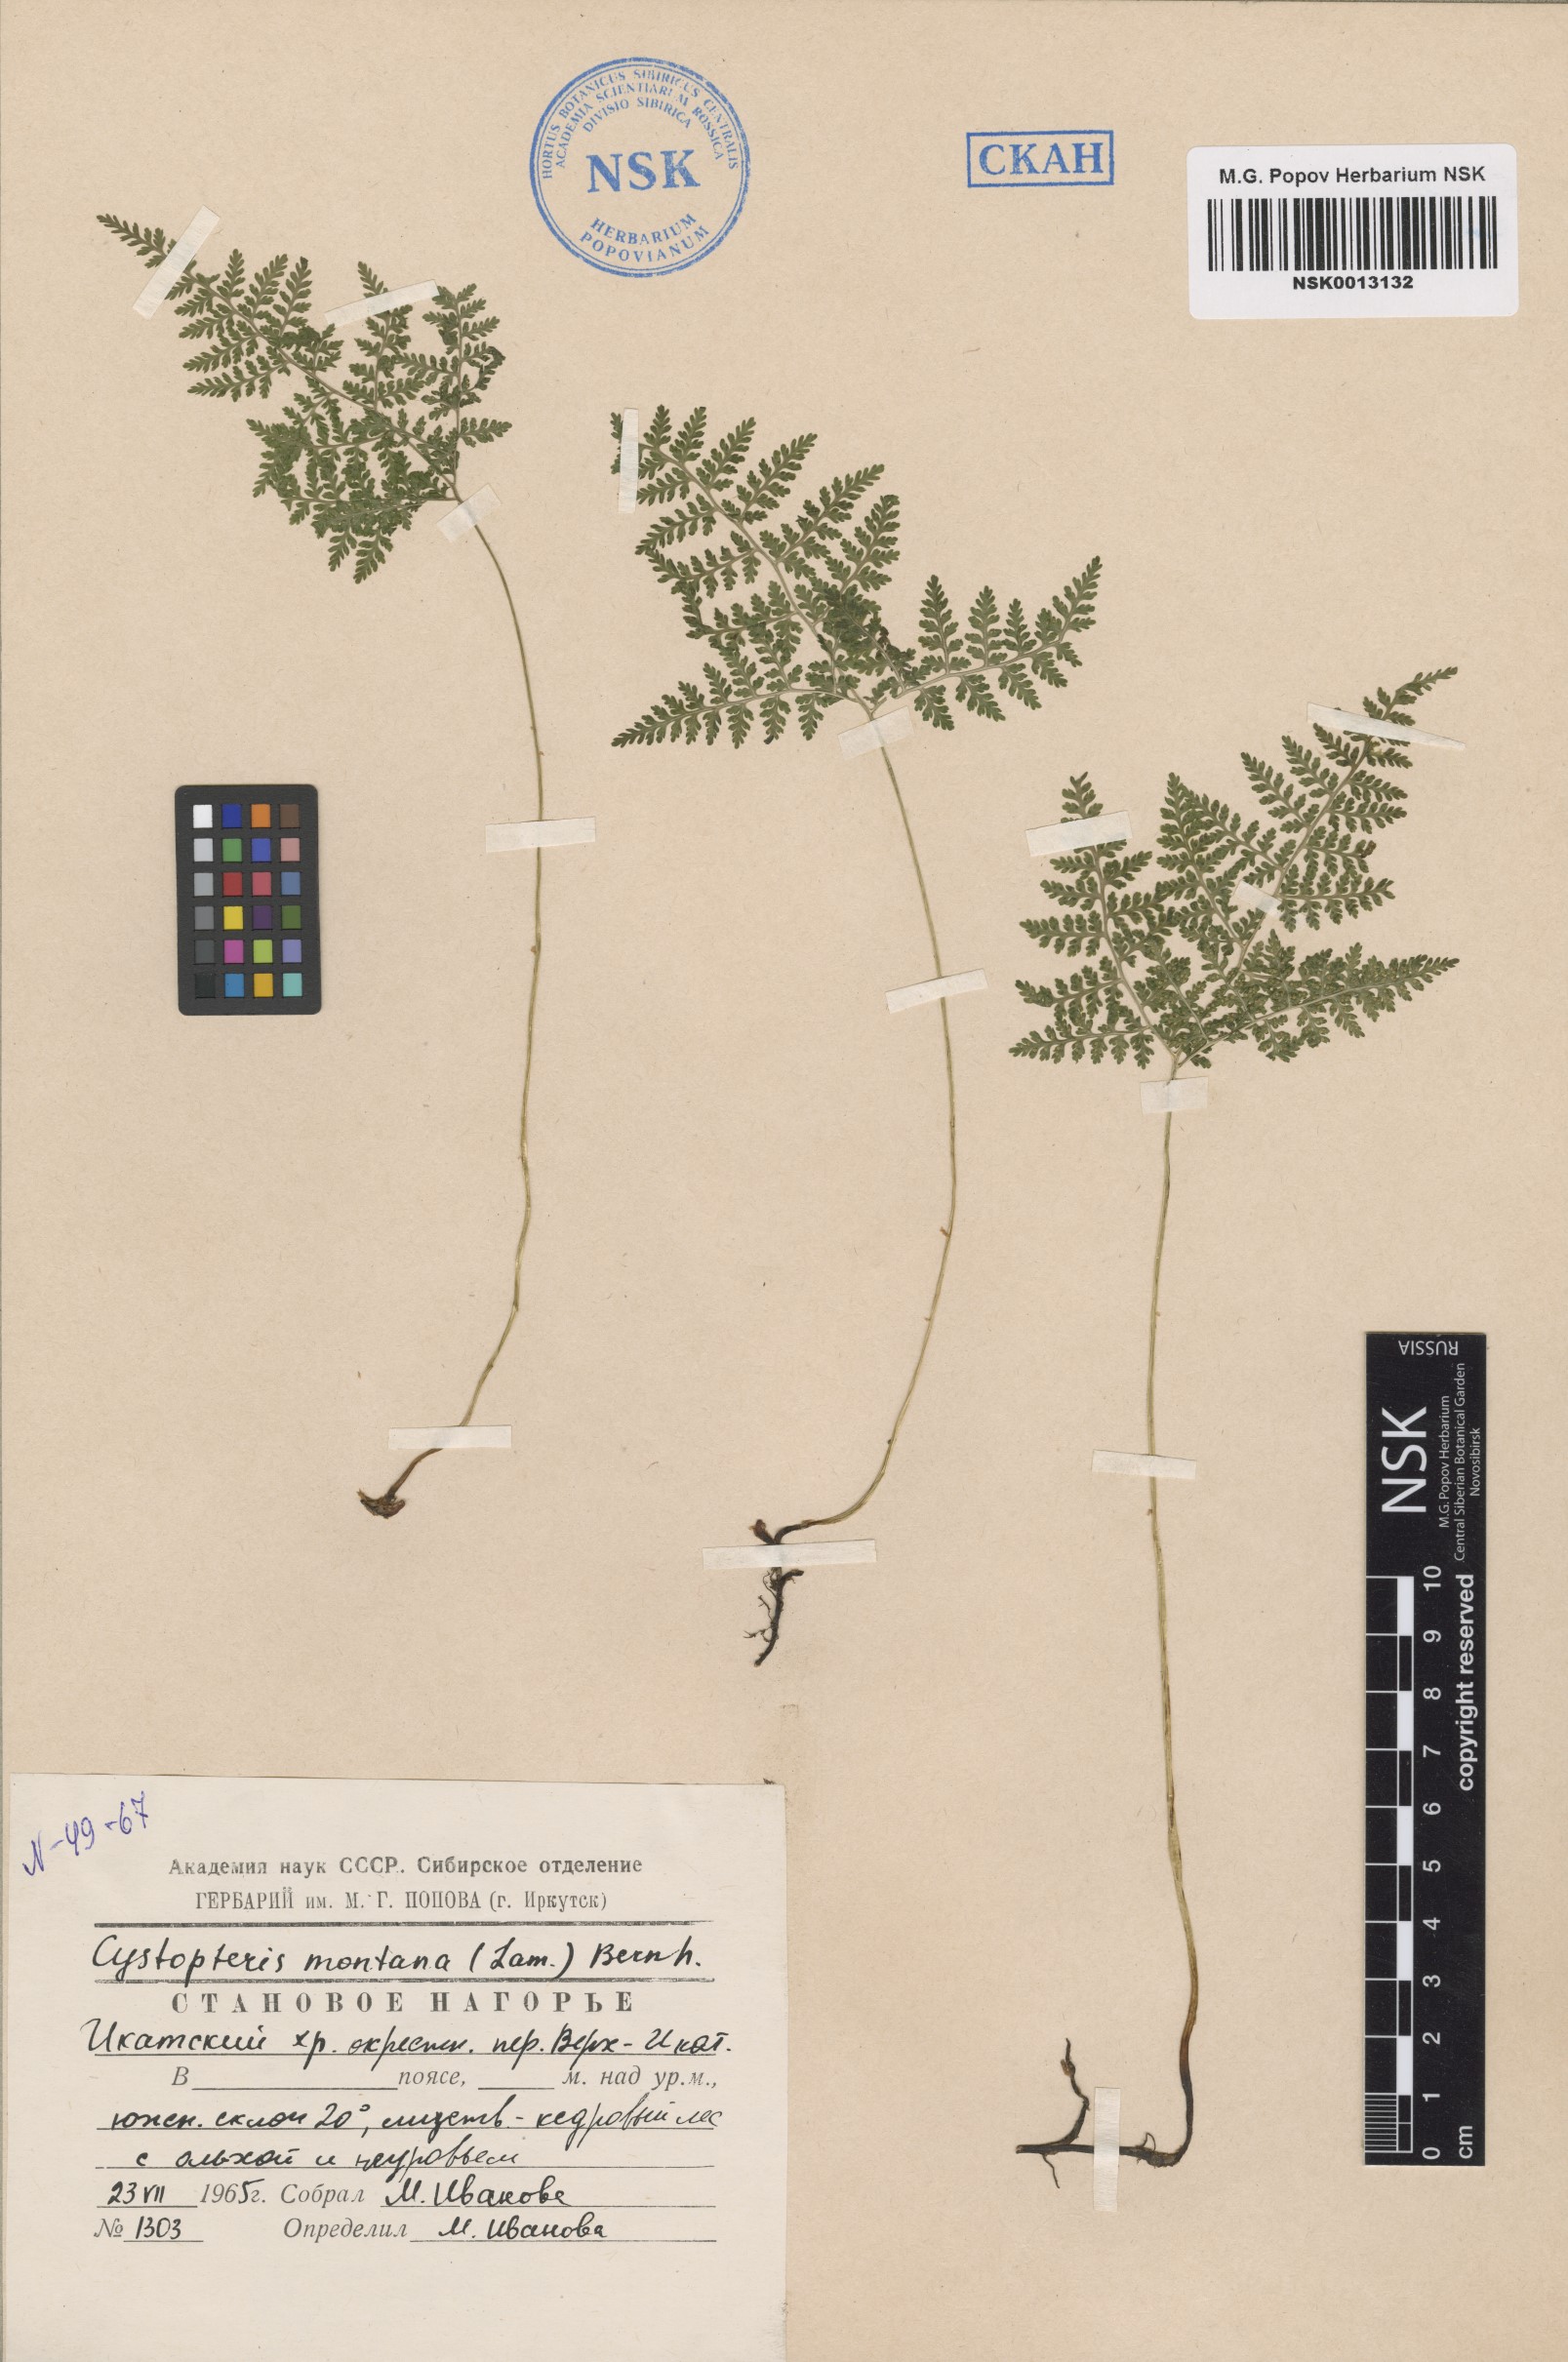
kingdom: Plantae
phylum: Tracheophyta
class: Polypodiopsida
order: Polypodiales
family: Cystopteridaceae
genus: Cystopteris
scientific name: Cystopteris montana
